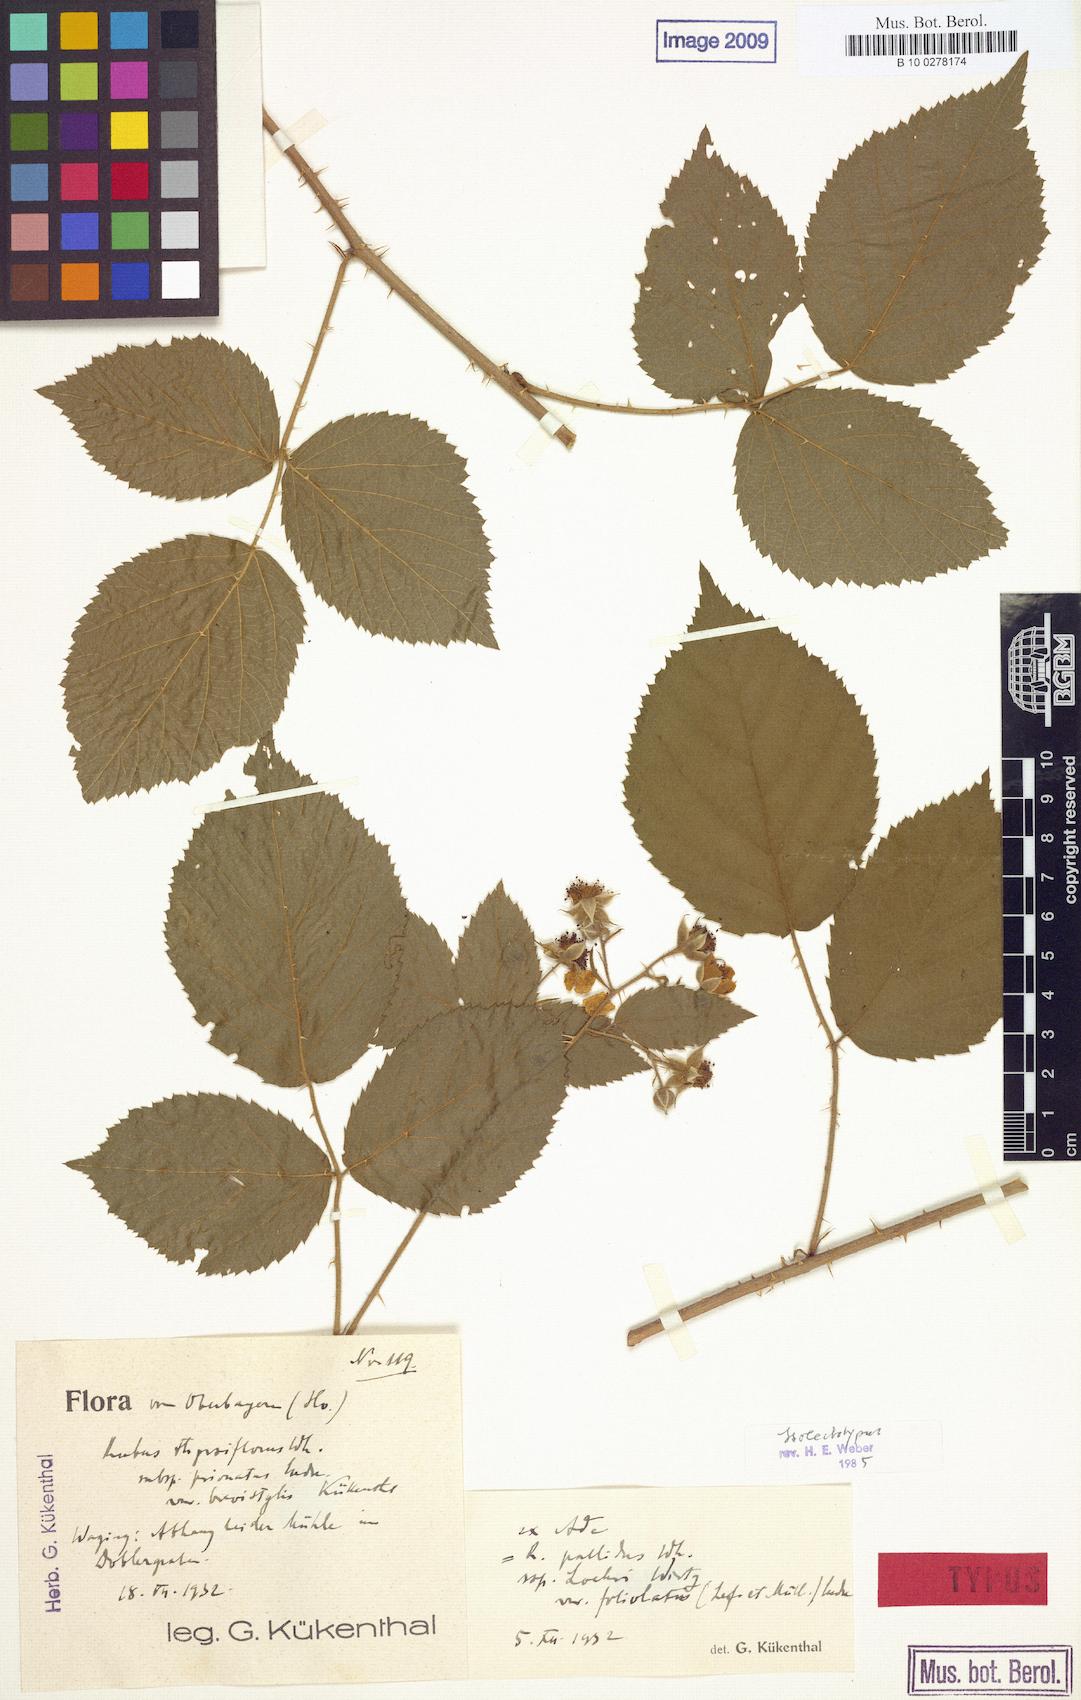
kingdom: Plantae
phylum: Tracheophyta
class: Magnoliopsida
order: Rosales
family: Rosaceae
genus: Rubus
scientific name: Rubus thyrsiflorus
